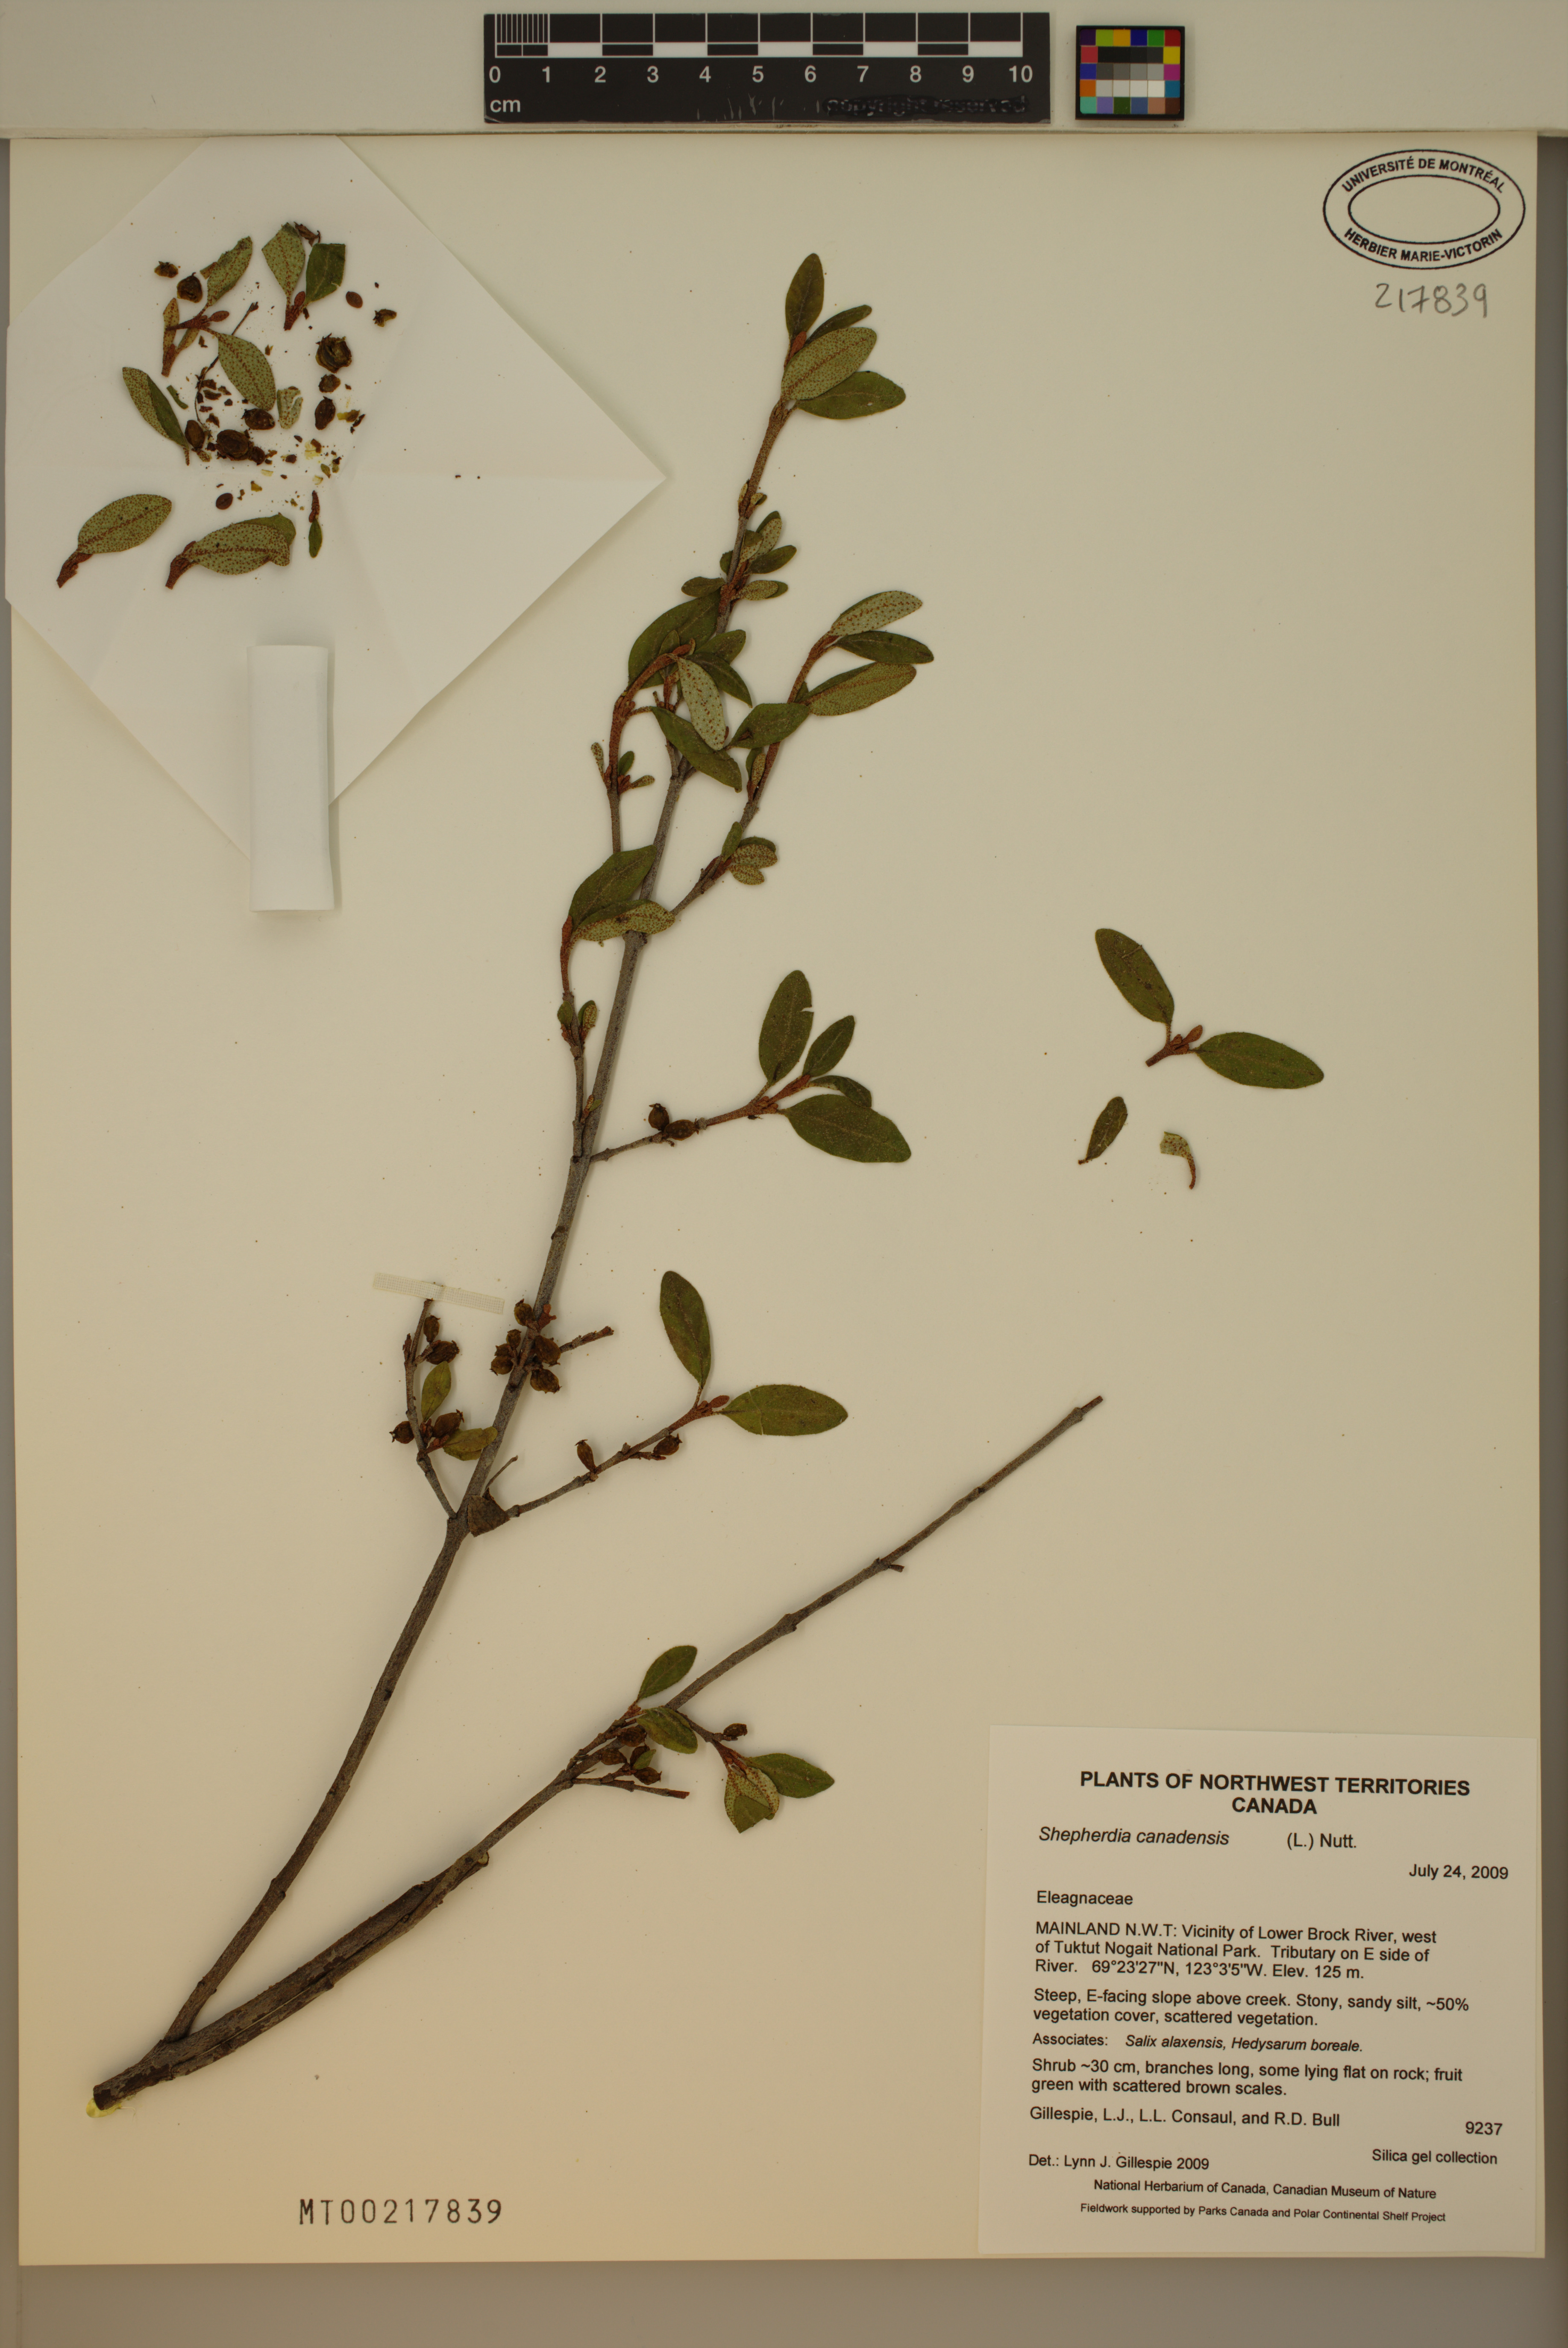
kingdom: Plantae
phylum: Tracheophyta
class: Magnoliopsida
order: Rosales
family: Elaeagnaceae
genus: Shepherdia
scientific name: Shepherdia canadensis
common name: Soapberry
